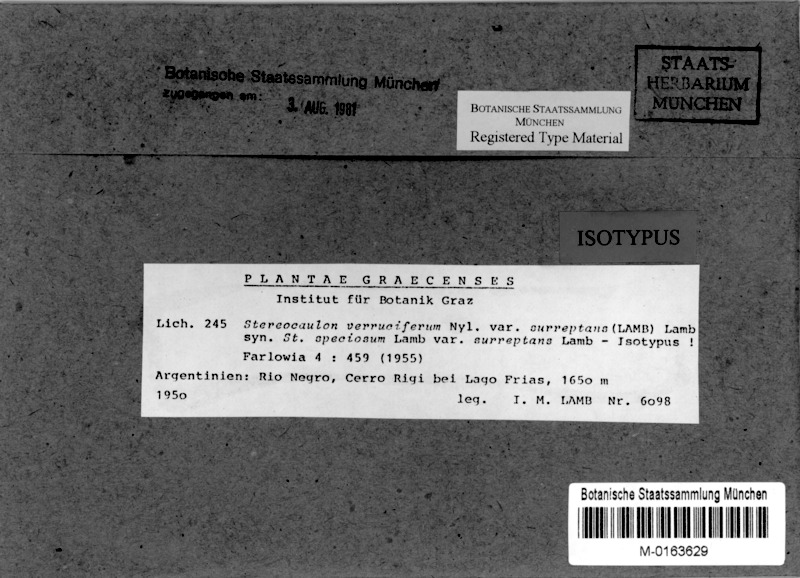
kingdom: Fungi
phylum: Ascomycota
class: Lecanoromycetes
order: Lecanorales
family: Stereocaulaceae
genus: Stereocaulon
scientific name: Stereocaulon verruciferum
